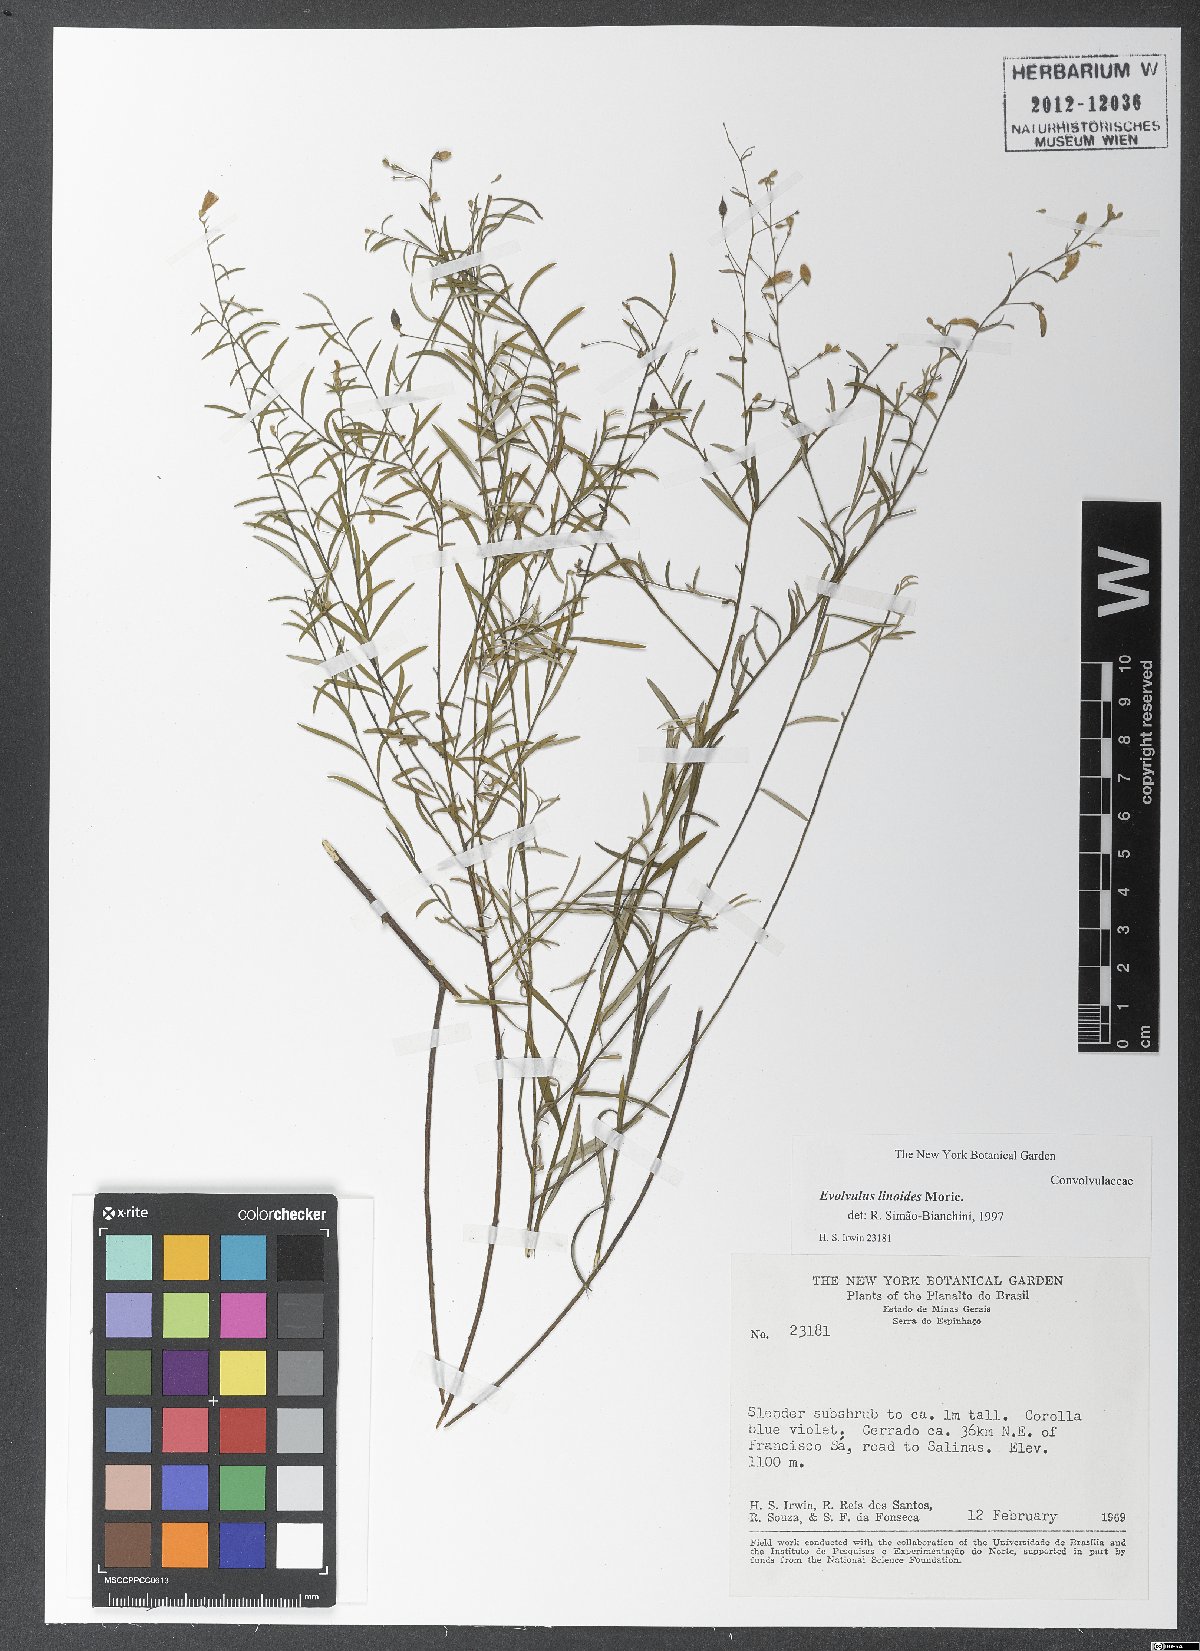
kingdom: Plantae
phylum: Tracheophyta
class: Magnoliopsida
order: Solanales
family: Convolvulaceae
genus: Evolvulus
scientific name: Evolvulus linoides
